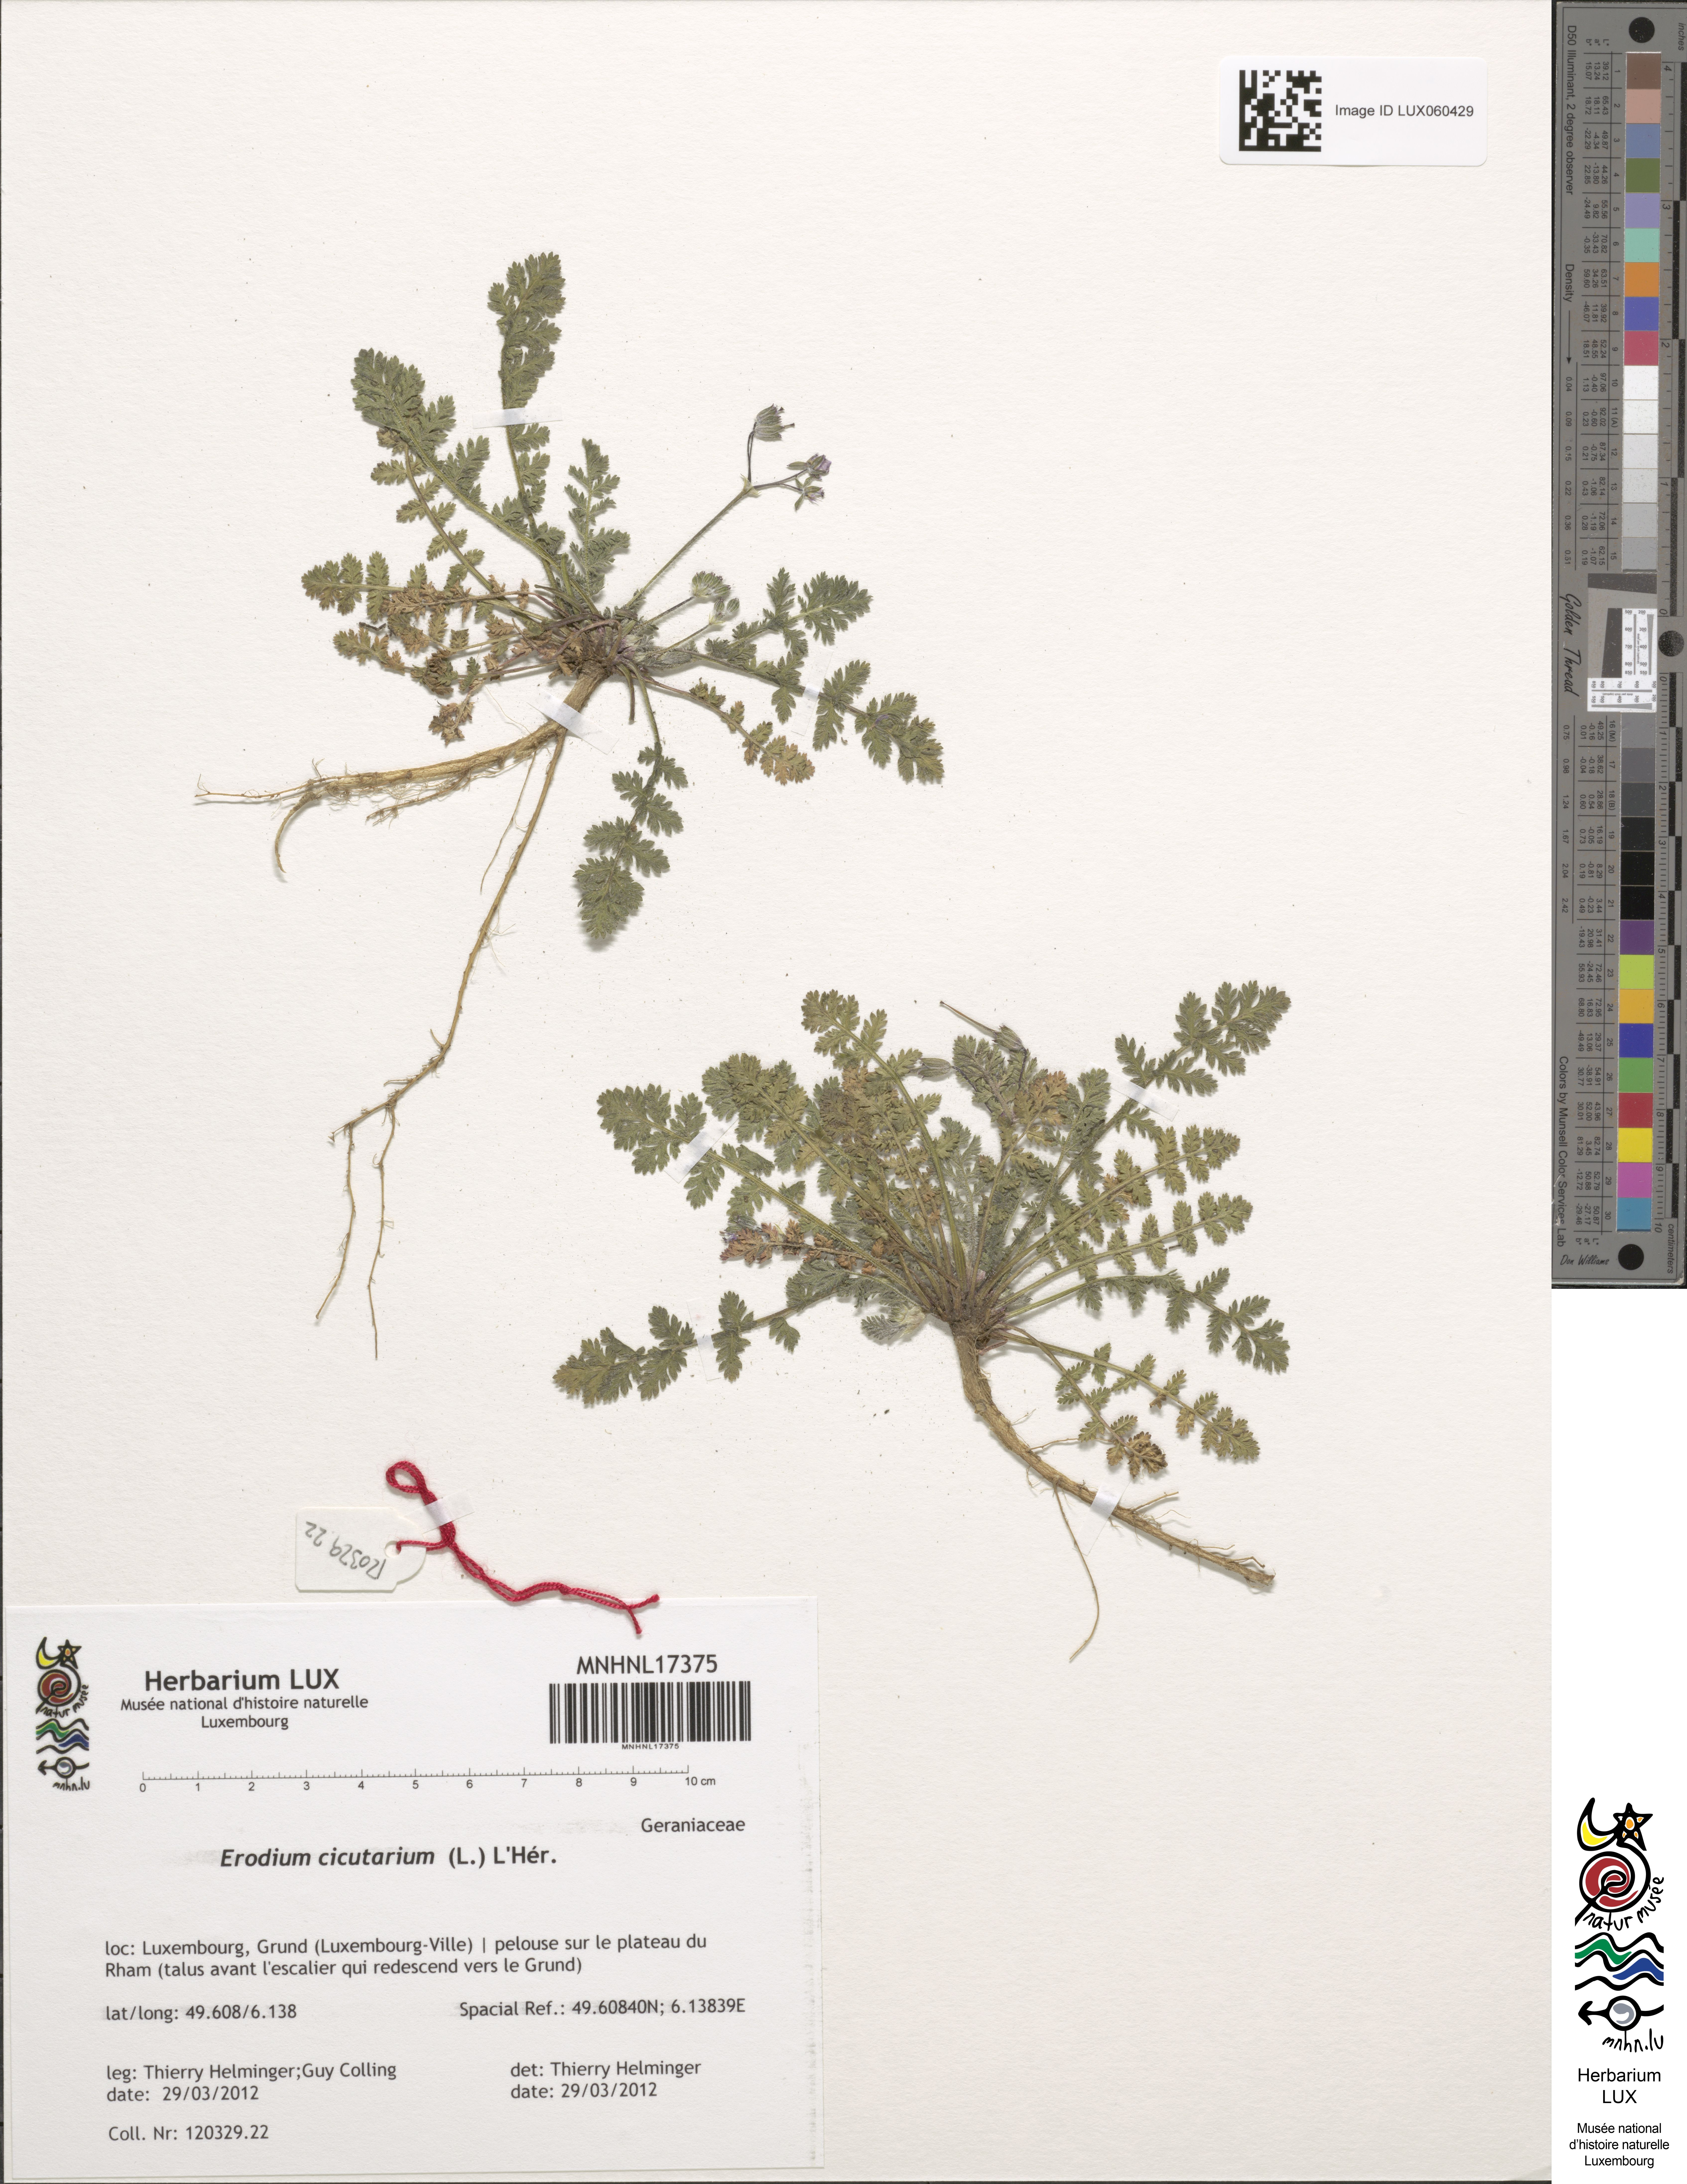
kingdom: Plantae
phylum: Tracheophyta
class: Magnoliopsida
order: Geraniales
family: Geraniaceae
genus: Erodium
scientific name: Erodium cicutarium
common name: Common stork's-bill
